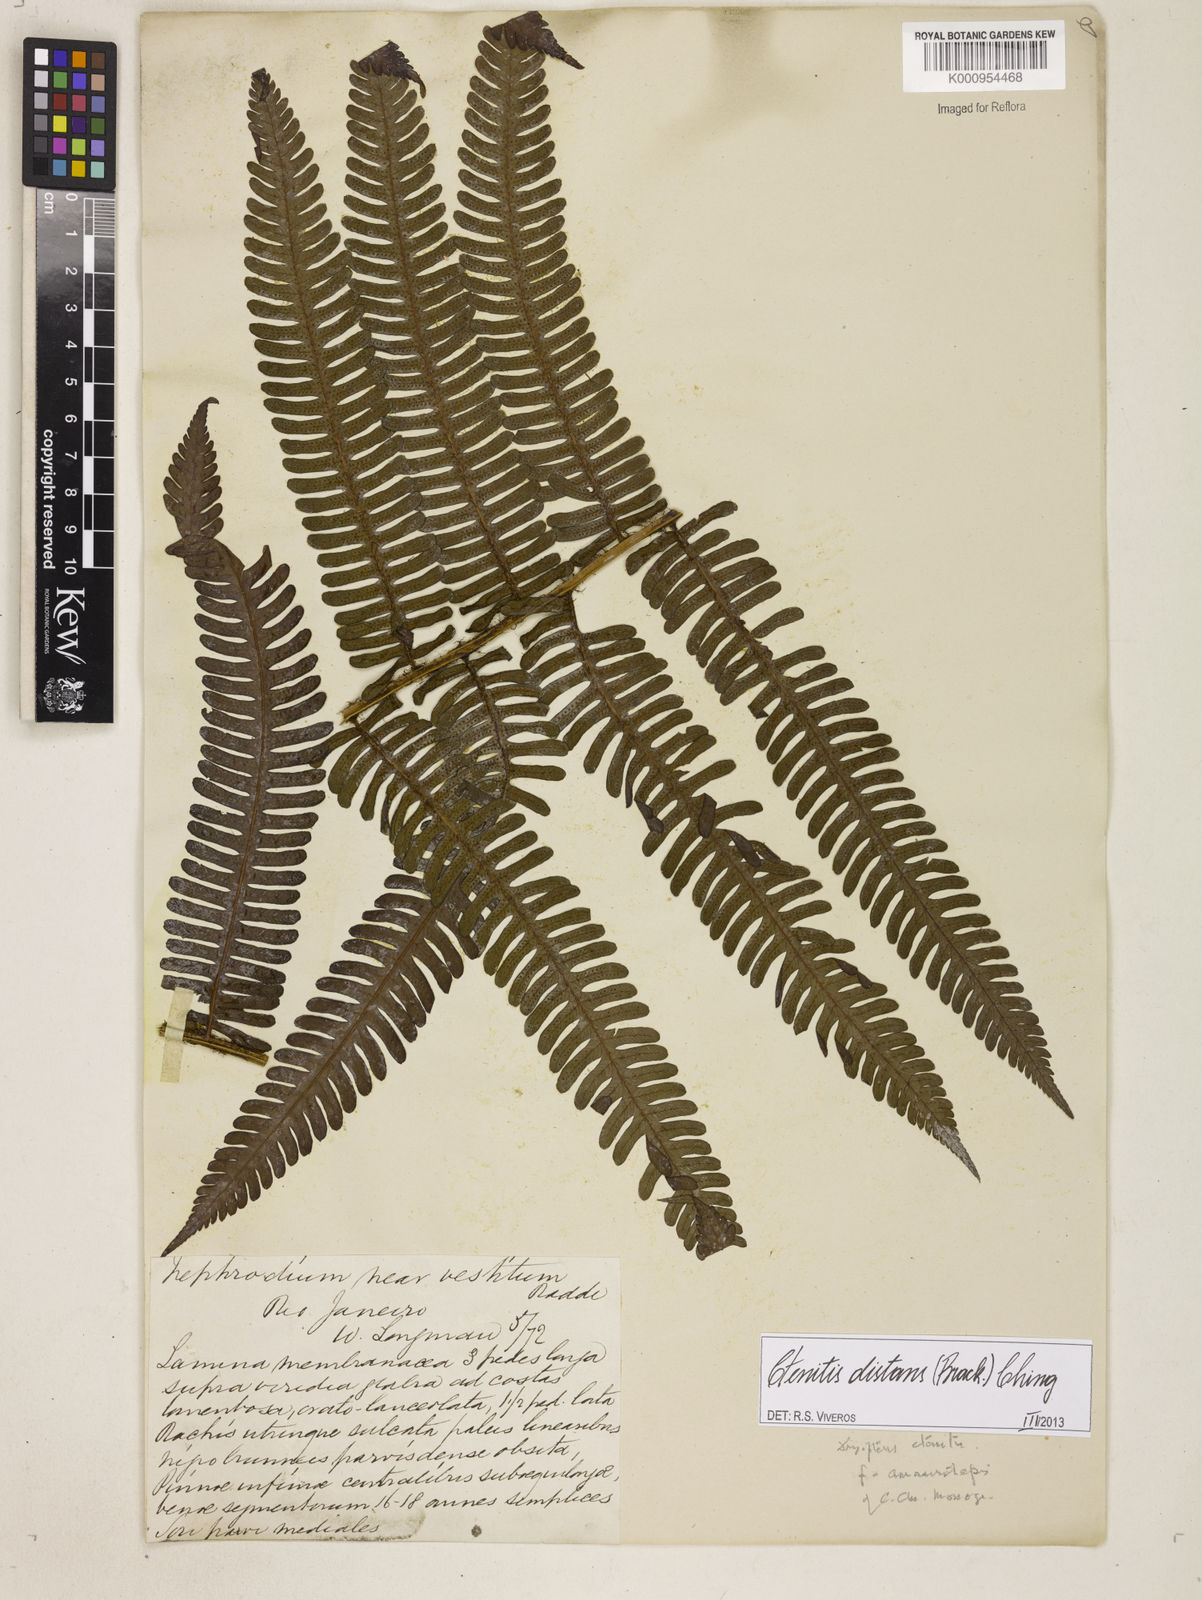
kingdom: Plantae
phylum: Tracheophyta
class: Polypodiopsida
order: Polypodiales
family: Dryopteridaceae
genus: Ctenitis
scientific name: Ctenitis distans
